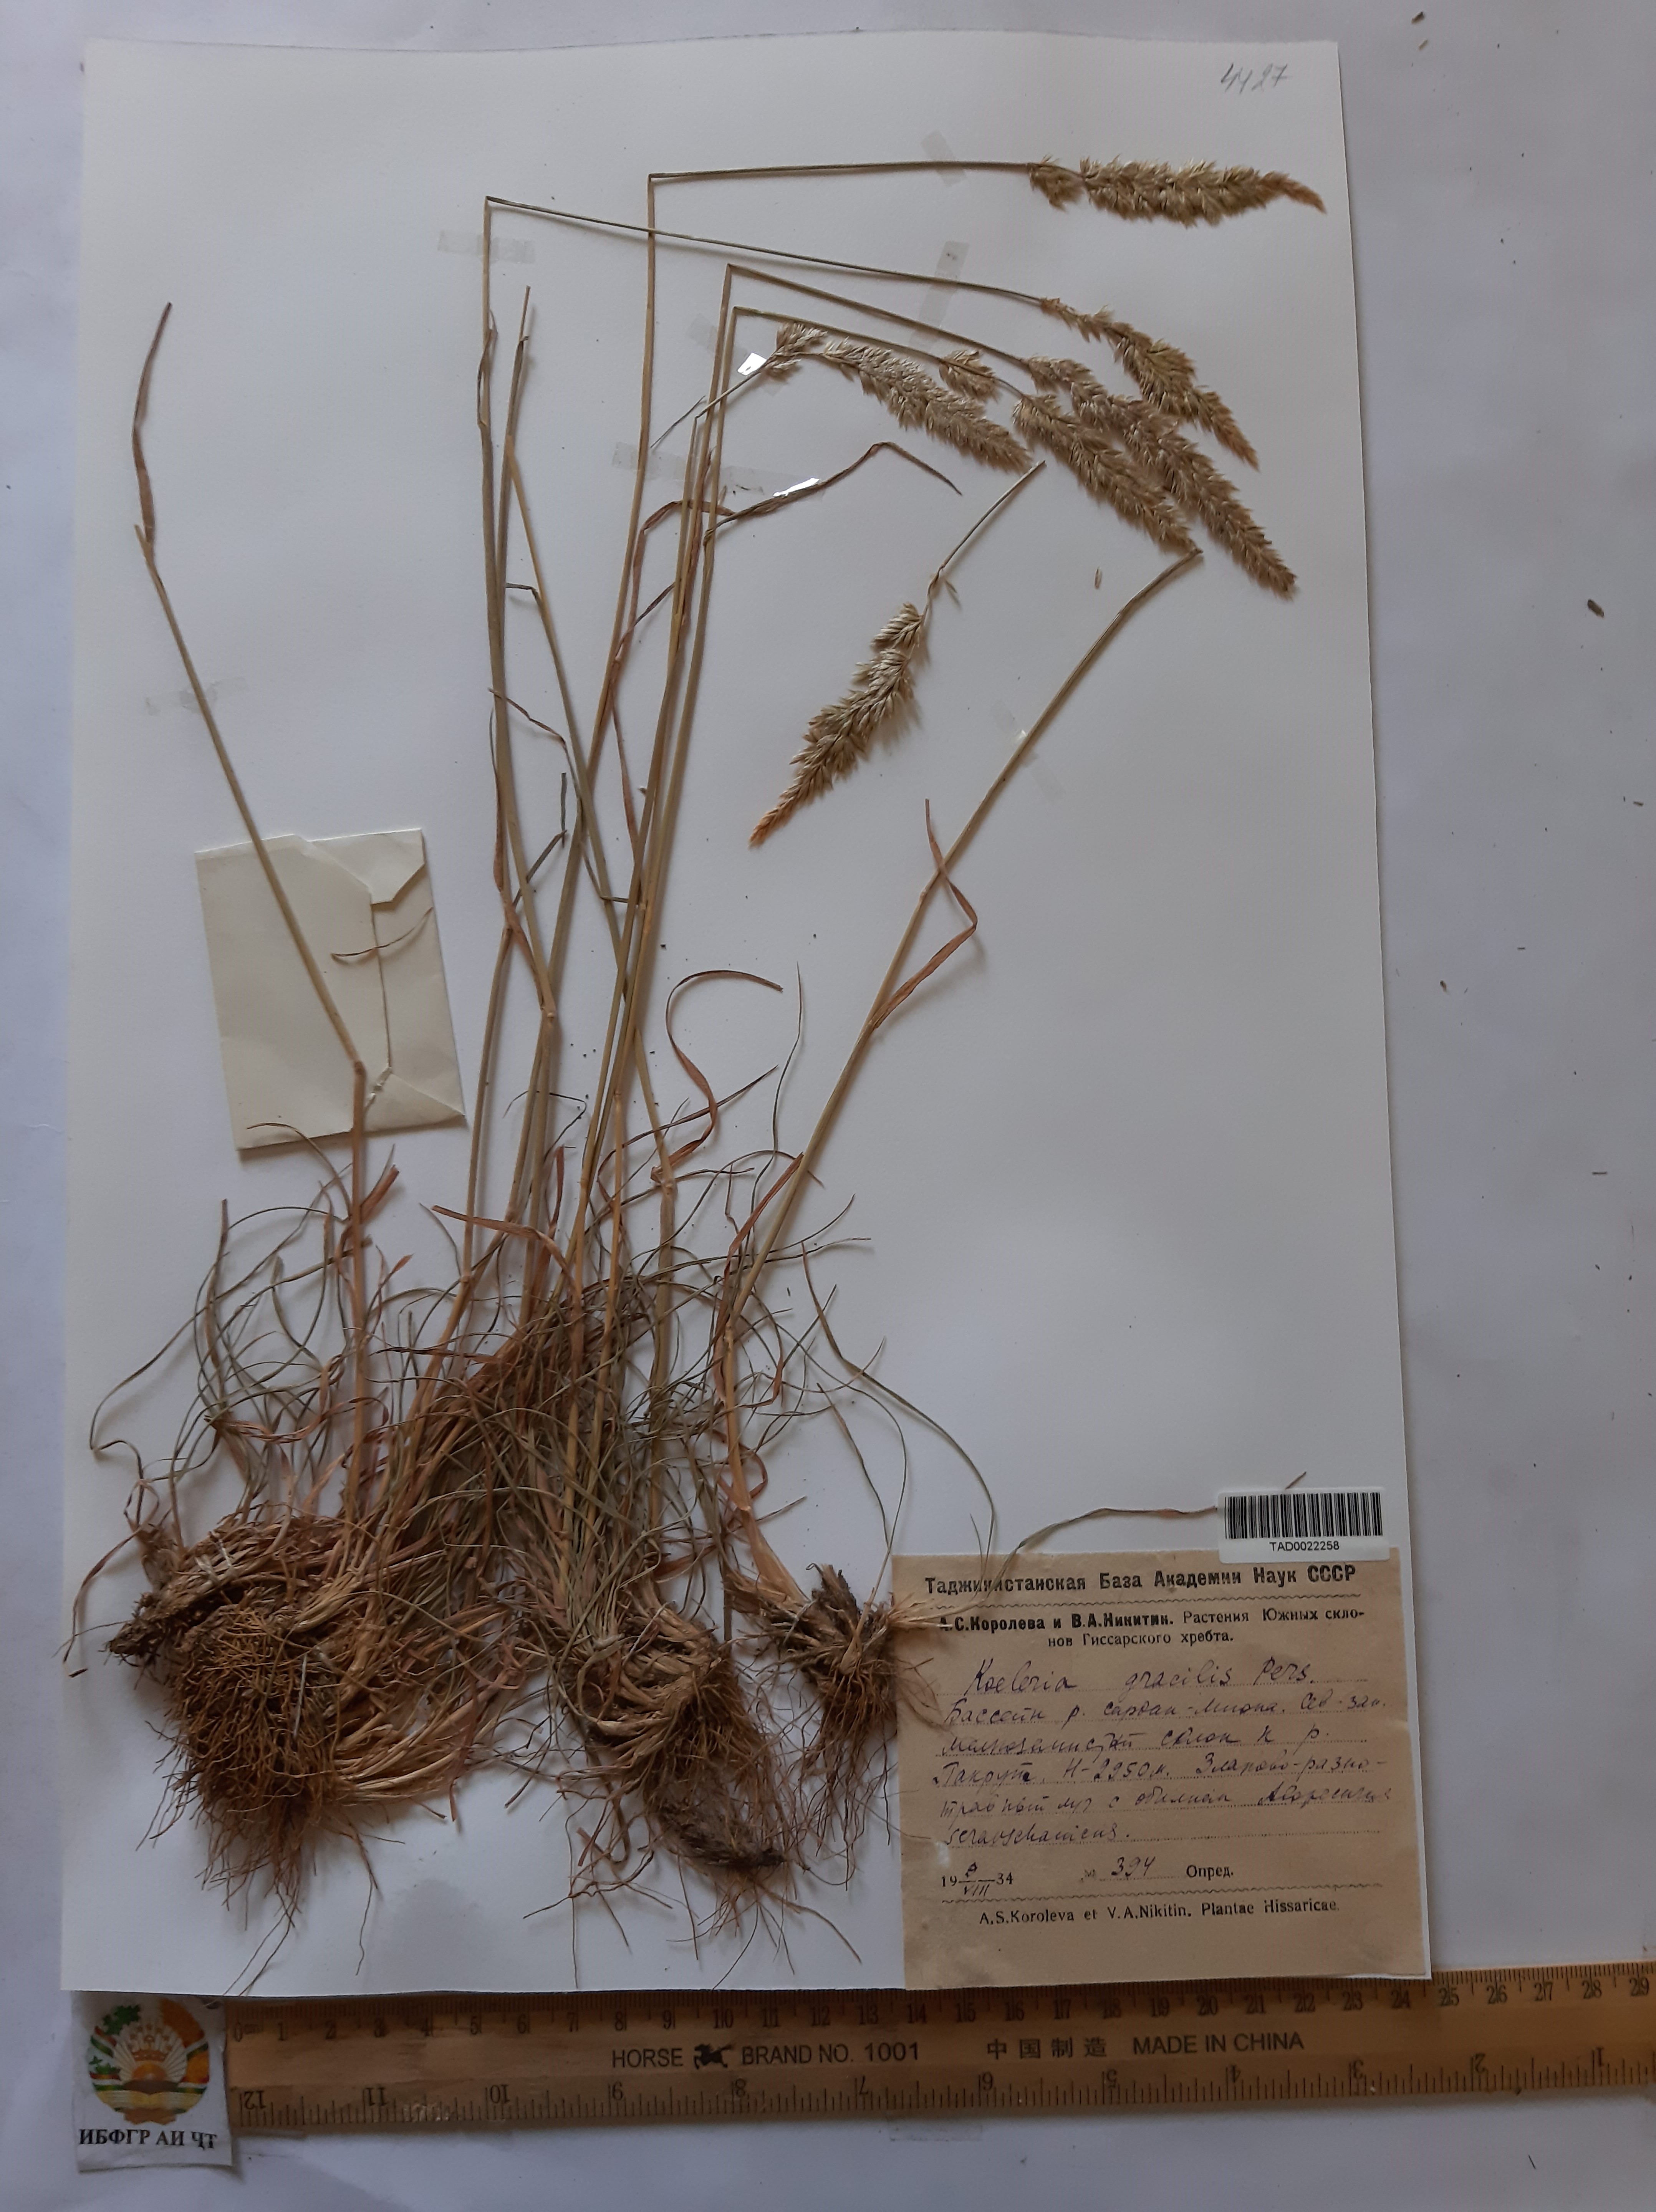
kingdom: Plantae
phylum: Tracheophyta
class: Liliopsida
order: Poales
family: Poaceae
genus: Koeleria
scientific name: Koeleria macrantha
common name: Crested hair-grass
